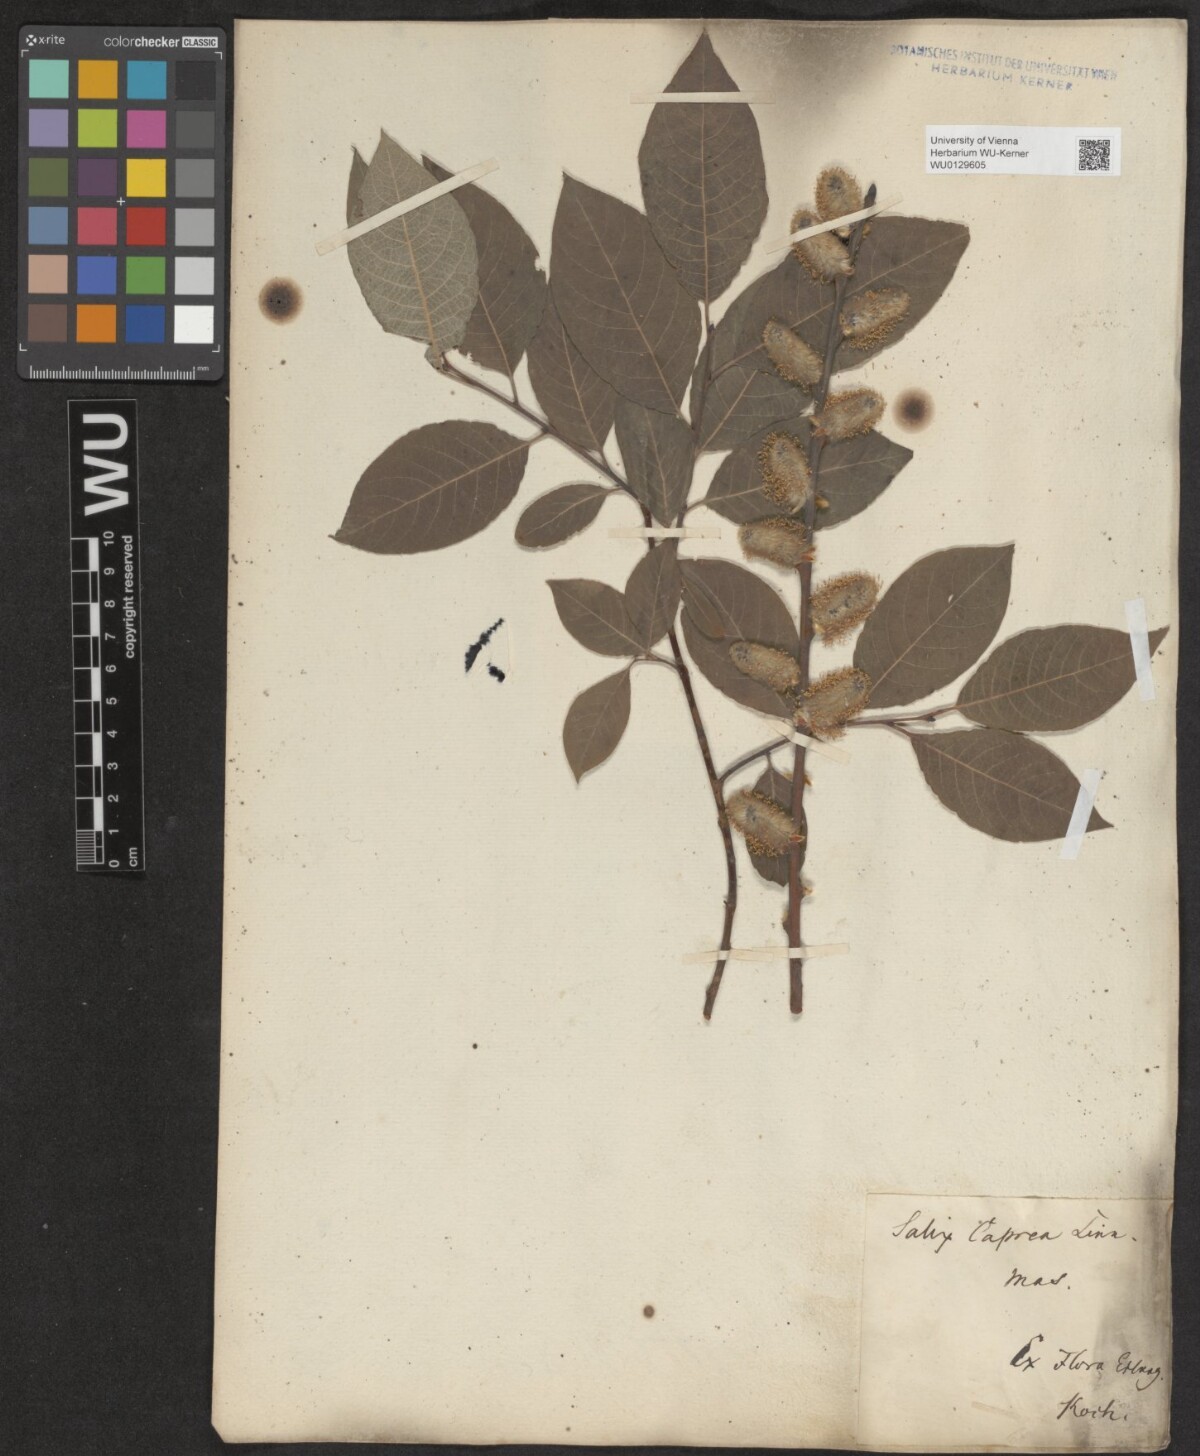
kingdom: Plantae
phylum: Tracheophyta
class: Magnoliopsida
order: Malpighiales
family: Salicaceae
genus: Salix
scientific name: Salix caprea
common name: Goat willow
